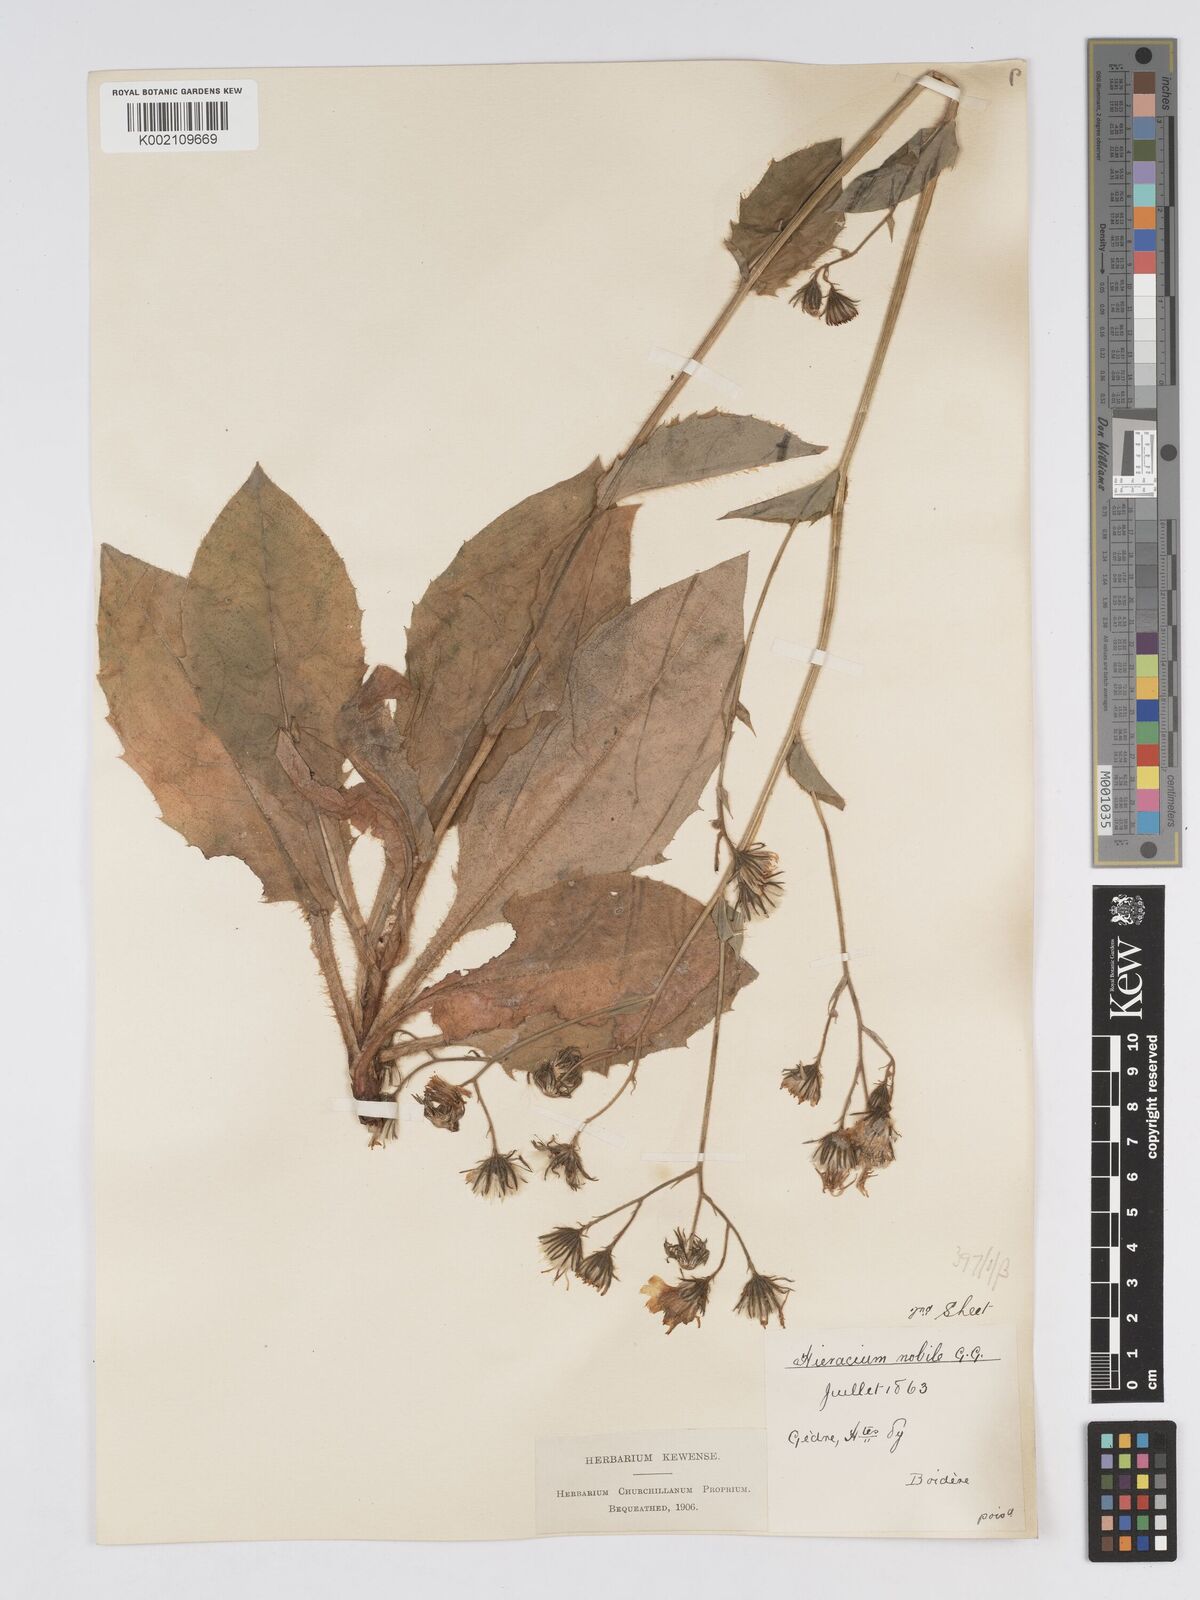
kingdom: Plantae
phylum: Tracheophyta
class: Magnoliopsida
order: Asterales
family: Asteraceae
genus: Hieracium
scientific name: Hieracium nobile
